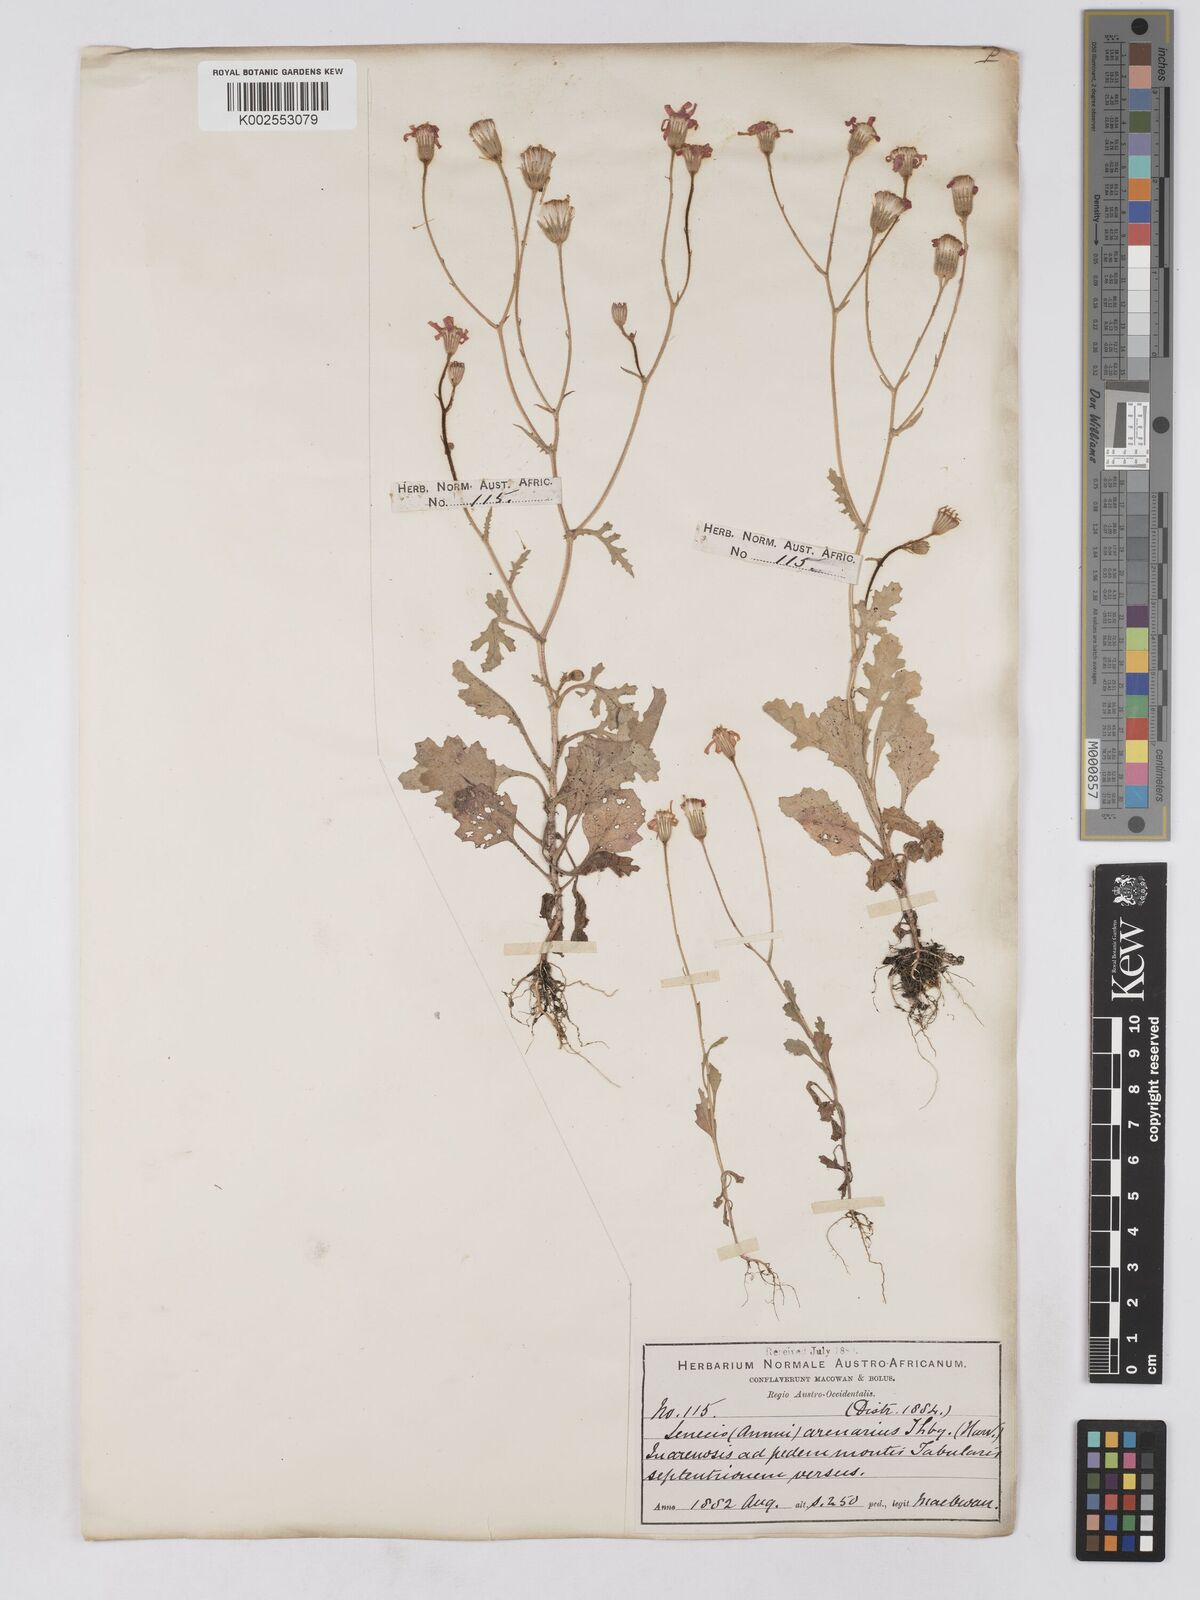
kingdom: Plantae
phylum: Tracheophyta
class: Magnoliopsida
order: Asterales
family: Asteraceae
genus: Senecio
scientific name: Senecio arenarius
